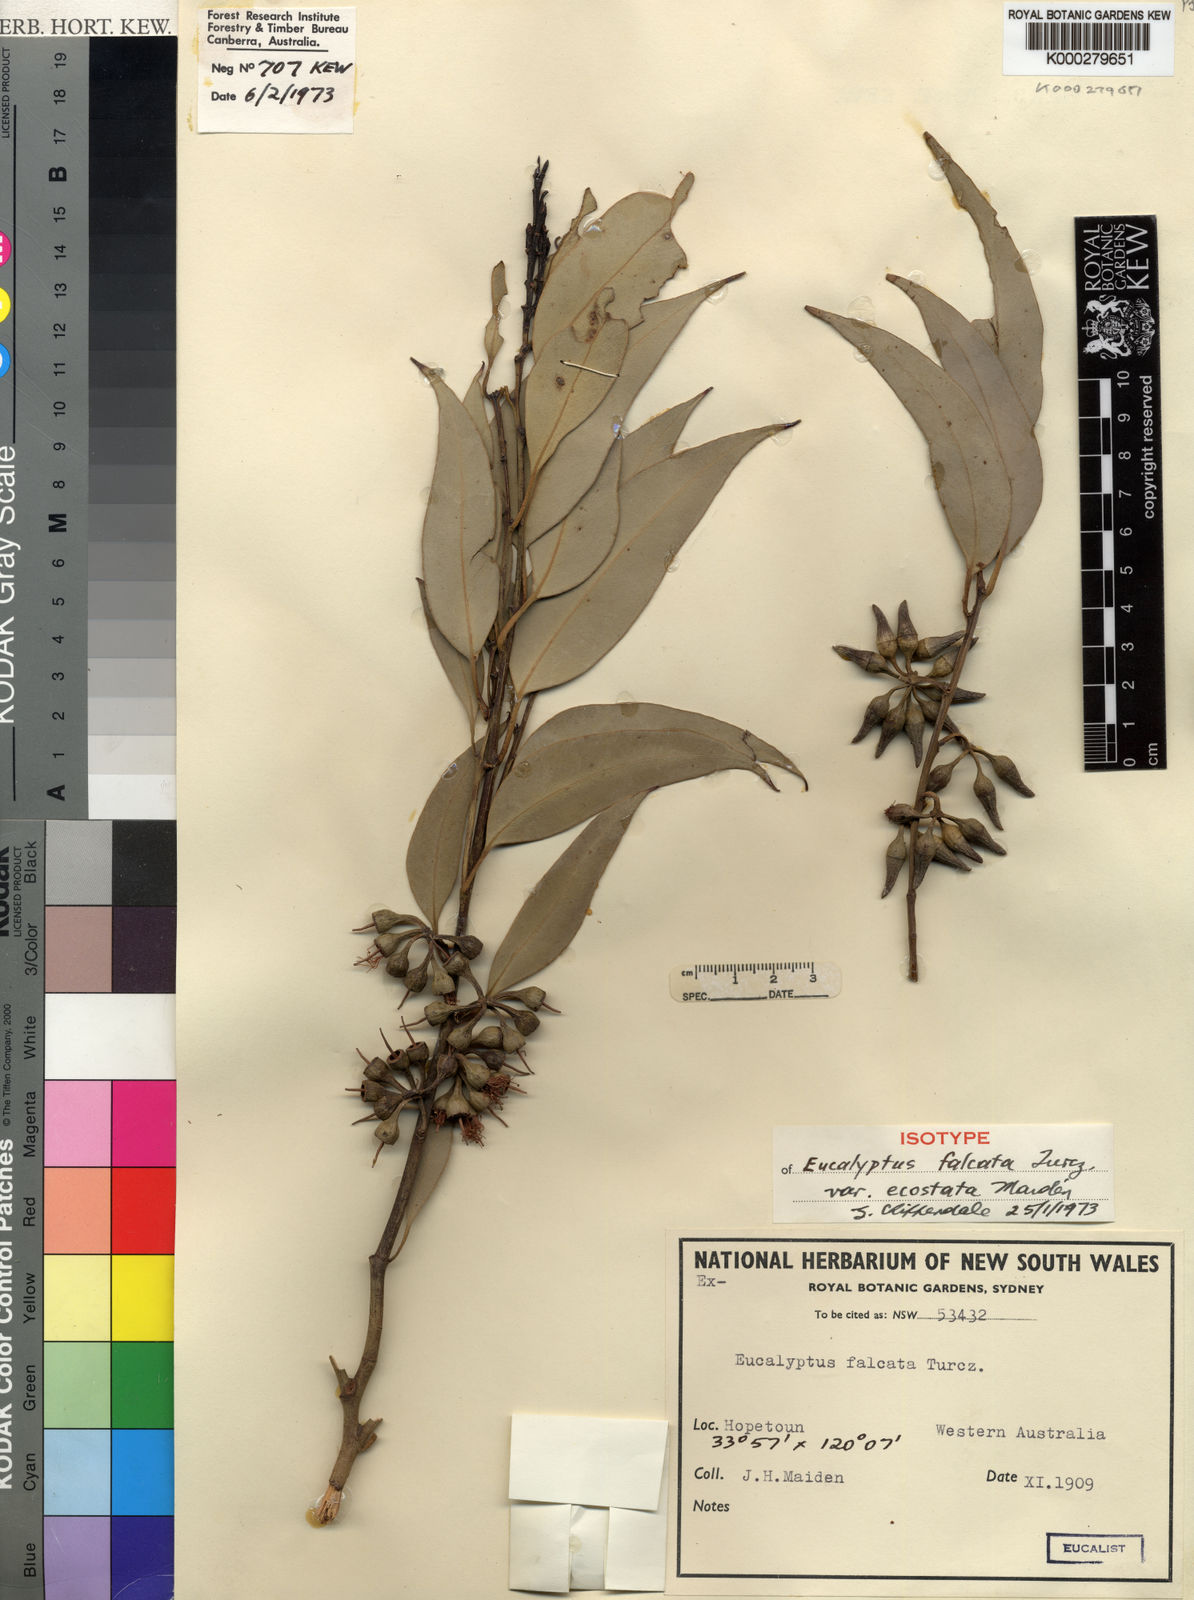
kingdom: Plantae
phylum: Tracheophyta
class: Magnoliopsida
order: Myrtales
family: Myrtaceae
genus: Eucalyptus
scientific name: Eucalyptus falcata
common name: Silver mallet
